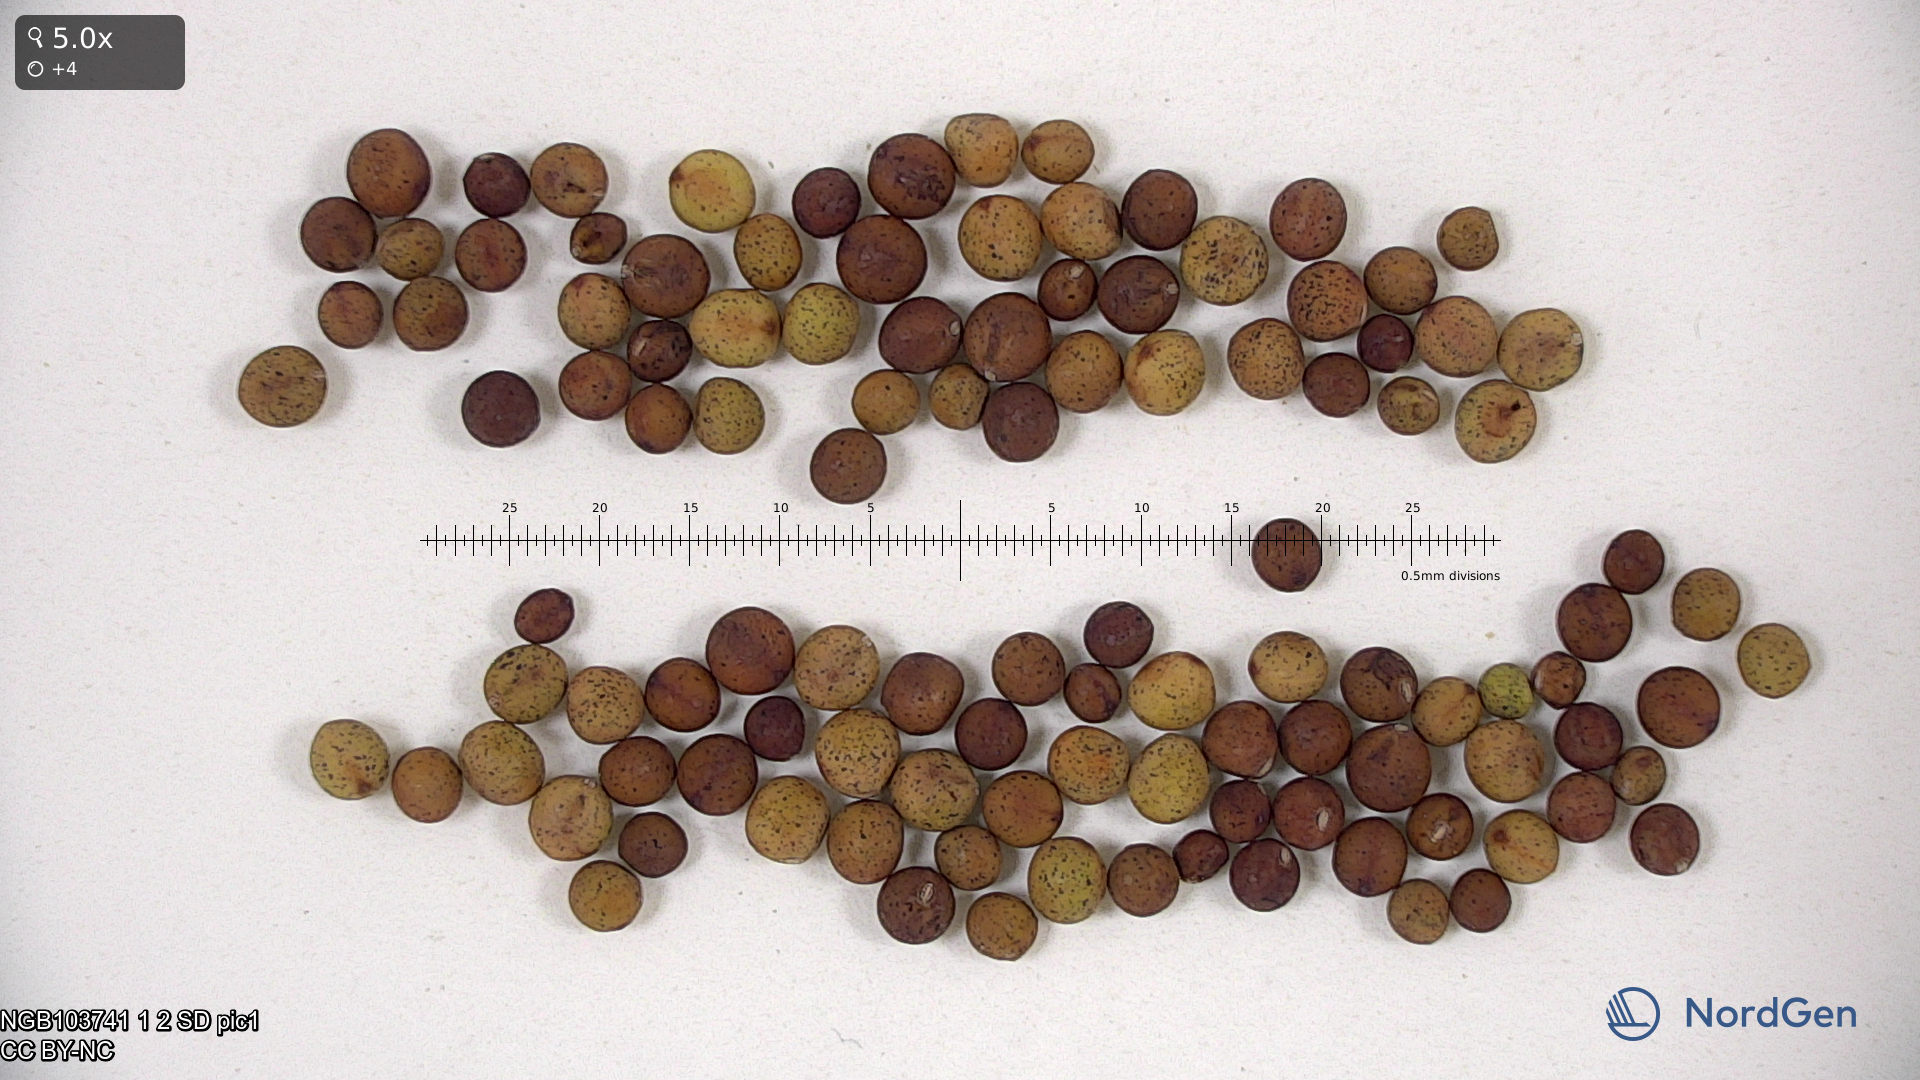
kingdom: Plantae
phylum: Tracheophyta
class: Magnoliopsida
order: Fabales
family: Fabaceae
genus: Lathyrus
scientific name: Lathyrus oleraceus
